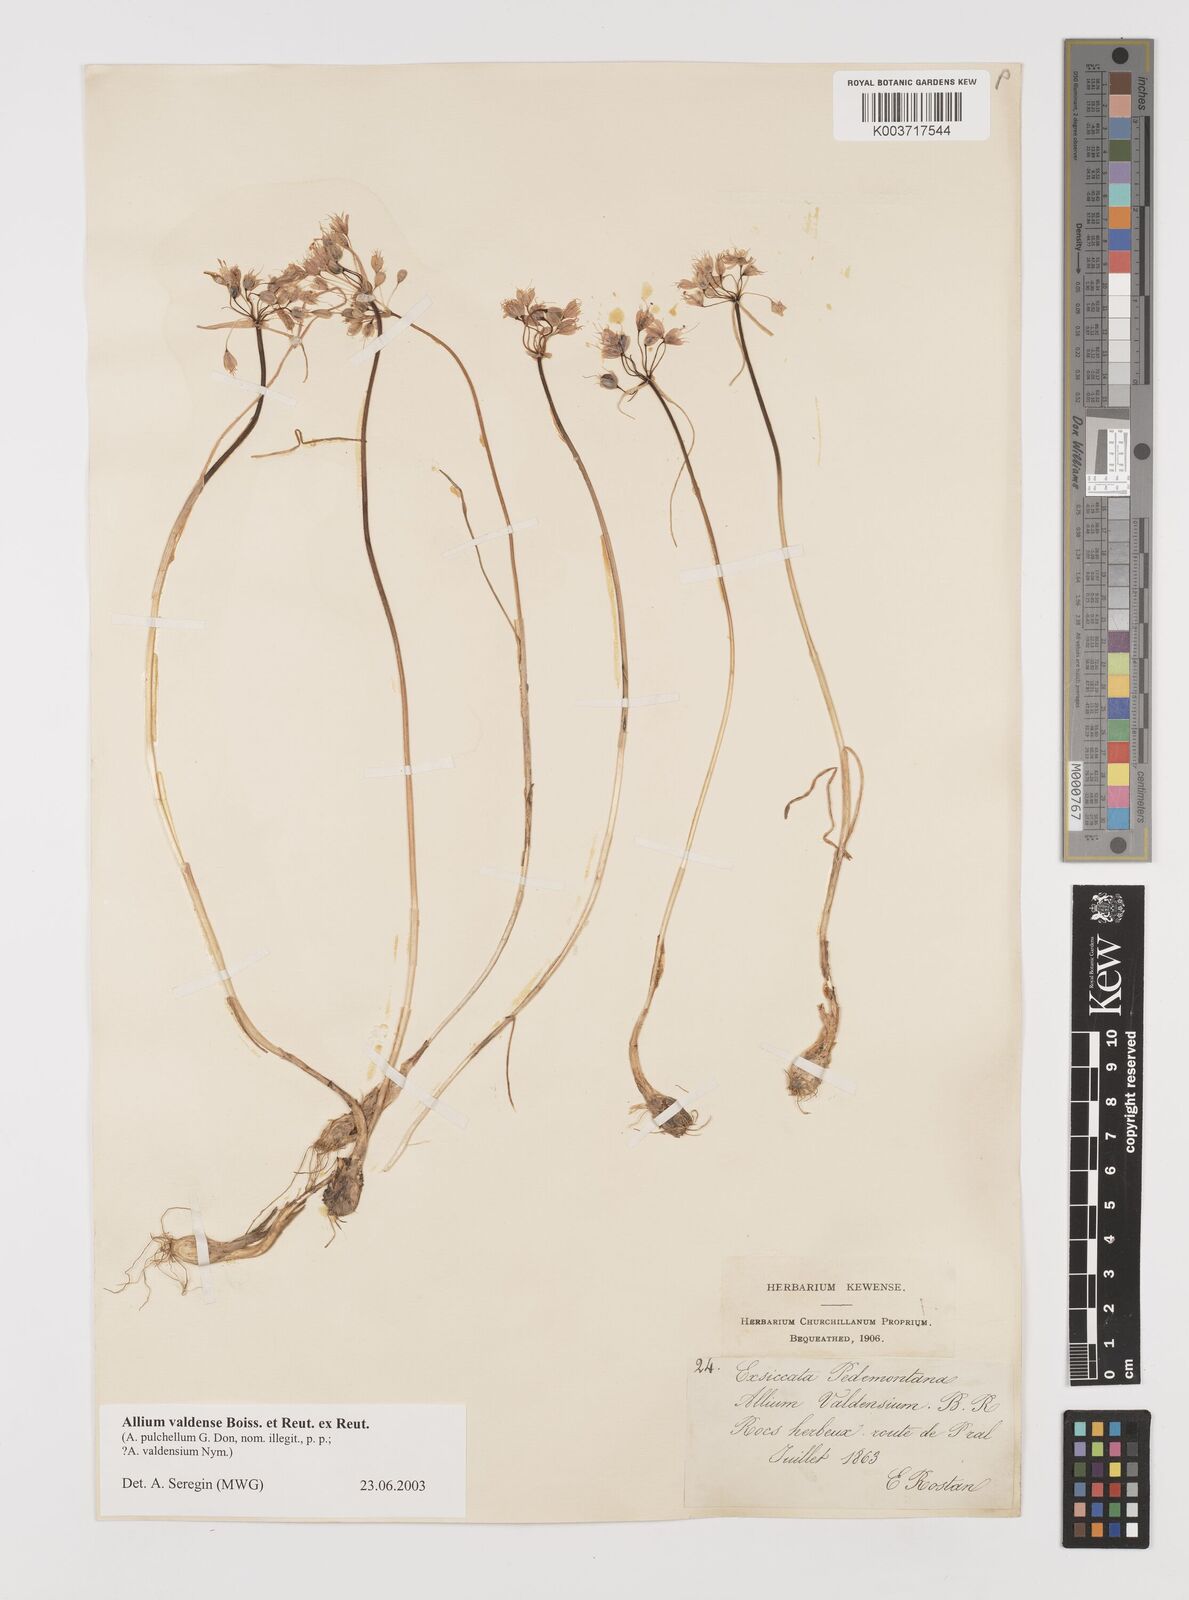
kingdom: Plantae
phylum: Tracheophyta
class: Liliopsida
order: Asparagales
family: Amaryllidaceae
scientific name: Amaryllidaceae
